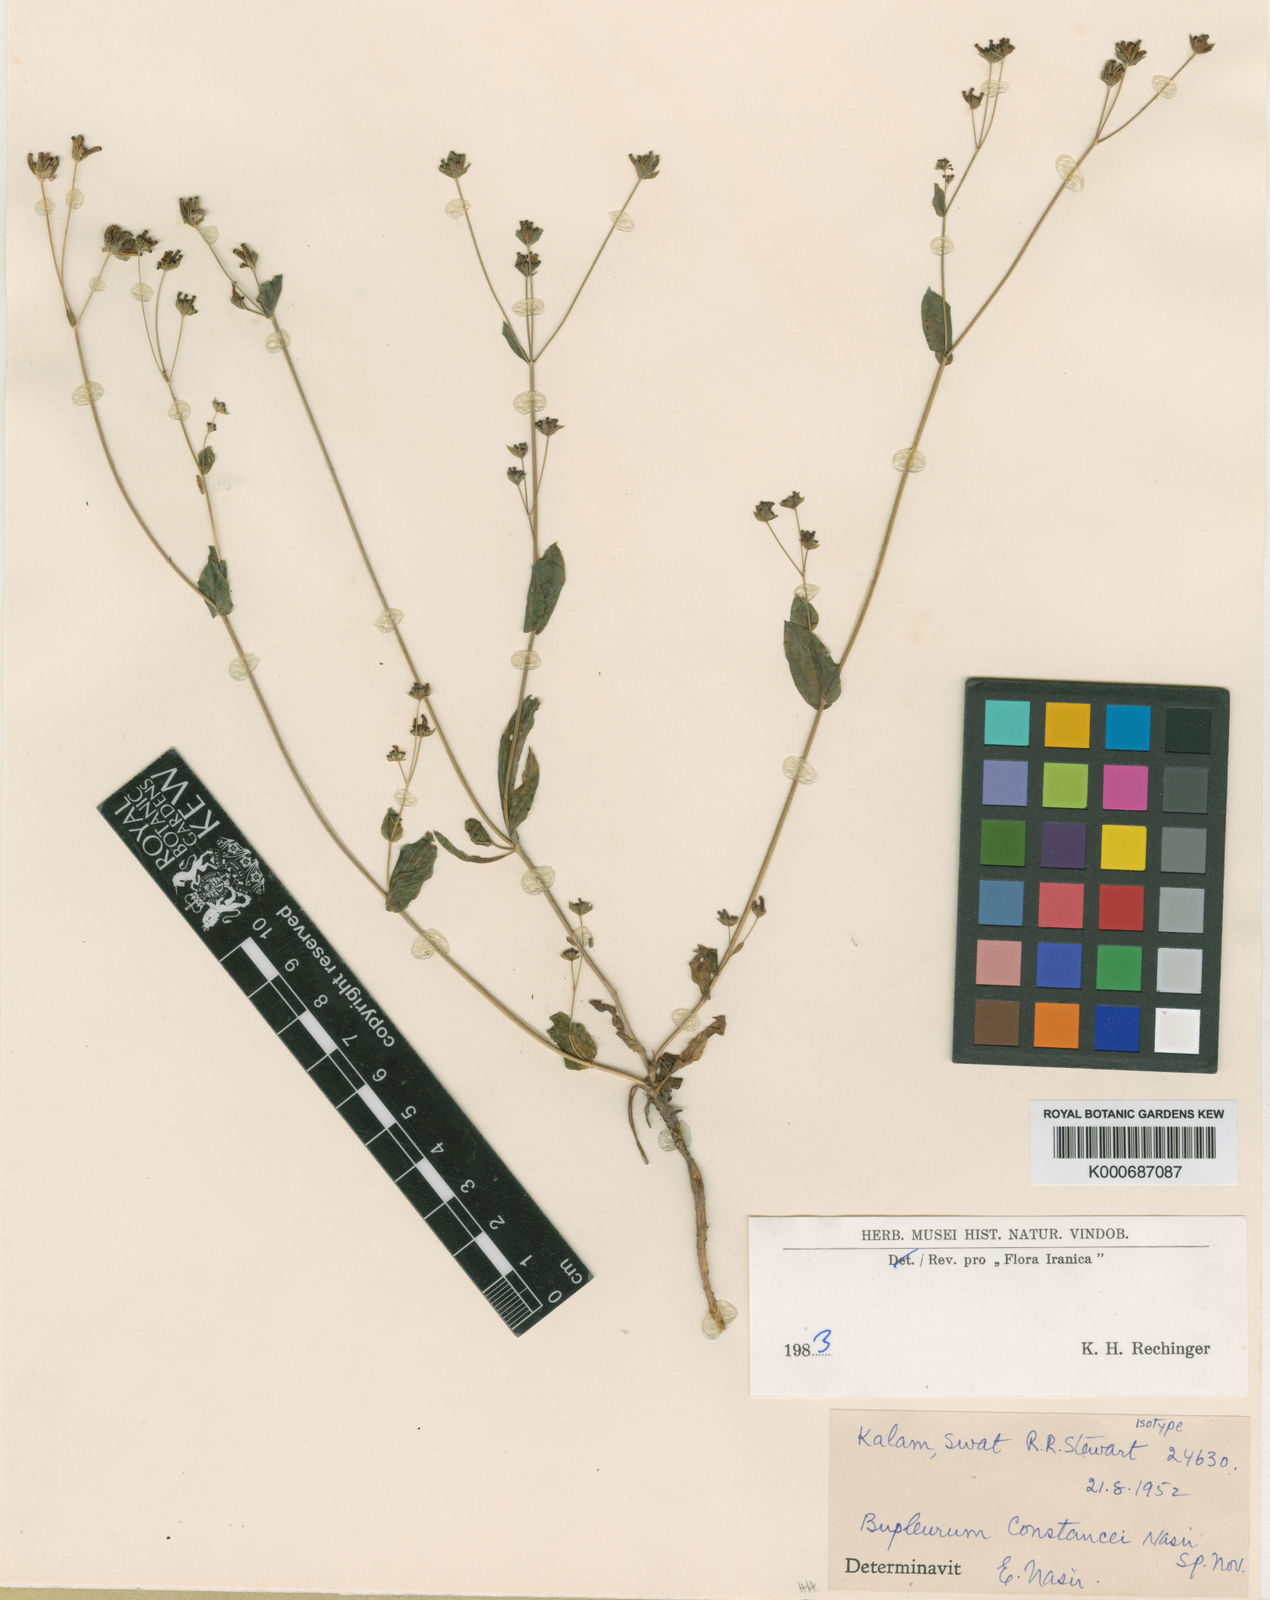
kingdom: Plantae
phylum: Tracheophyta
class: Magnoliopsida
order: Apiales
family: Apiaceae
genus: Bupleurum
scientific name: Bupleurum
